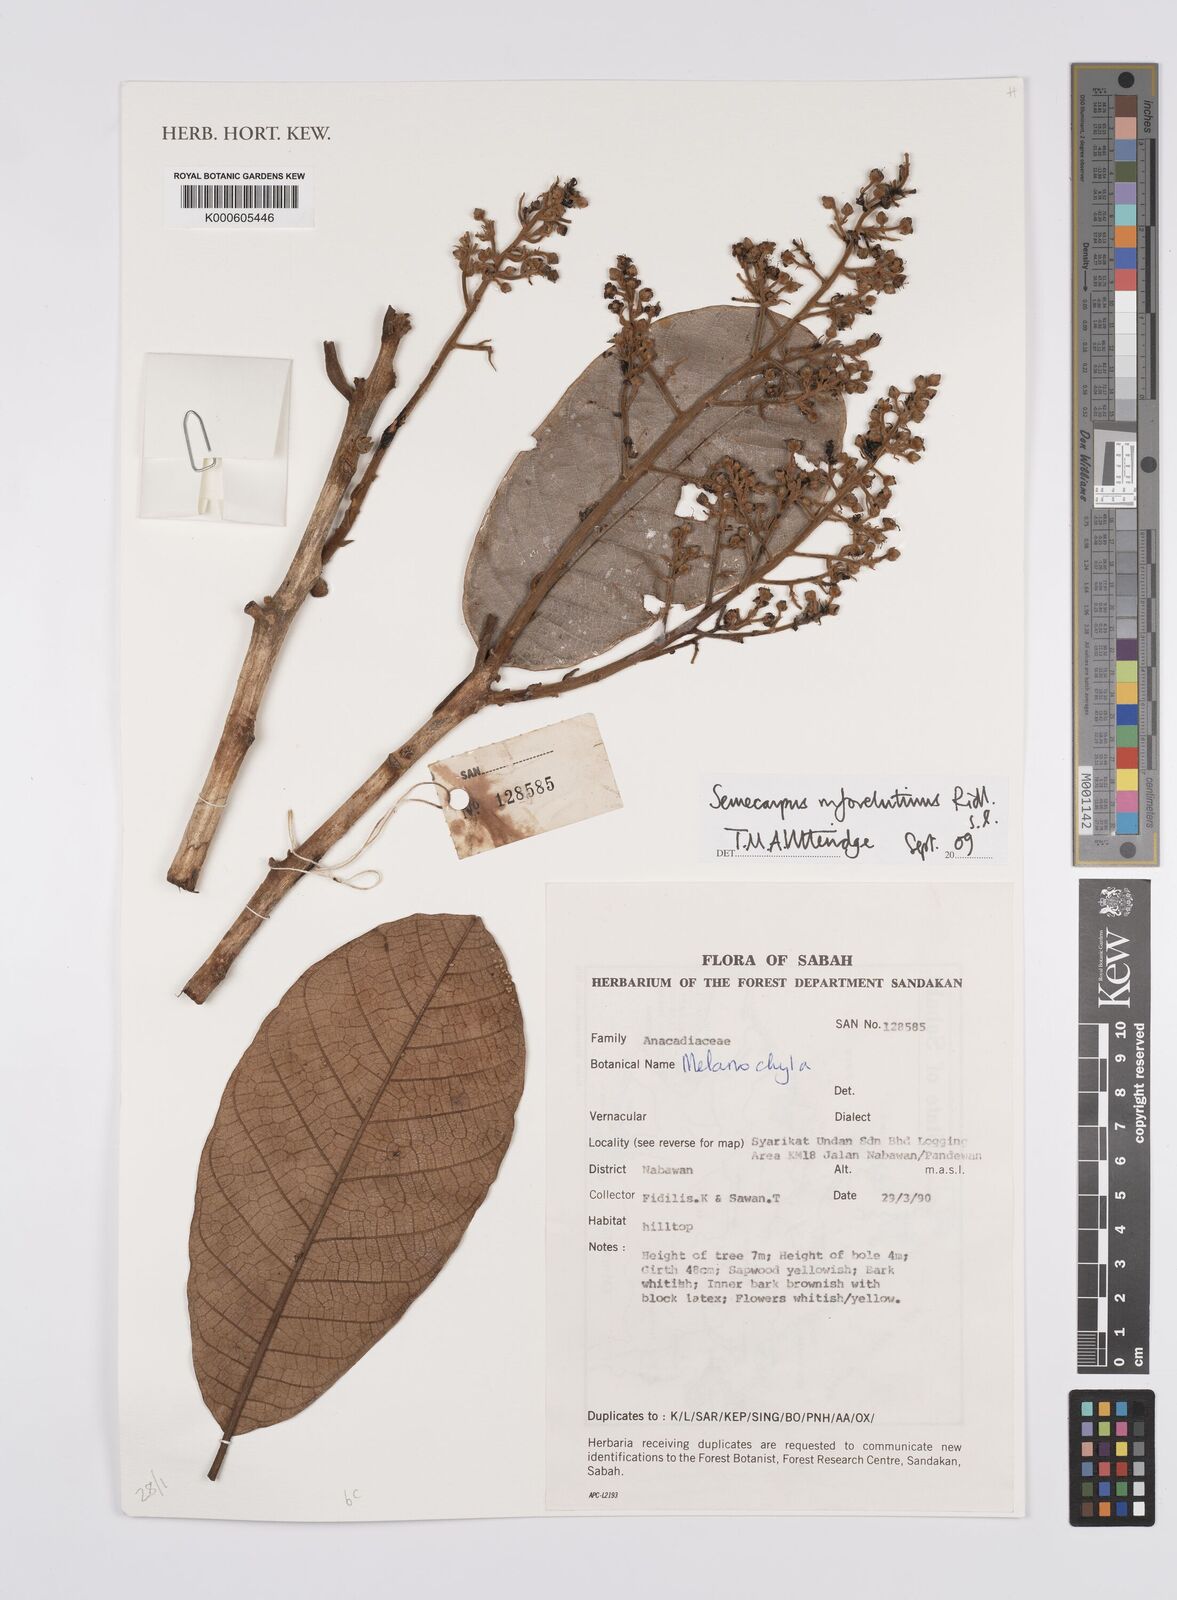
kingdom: Plantae
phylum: Tracheophyta
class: Magnoliopsida
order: Sapindales
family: Anacardiaceae
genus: Semecarpus
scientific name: Semecarpus rufovelutinus
